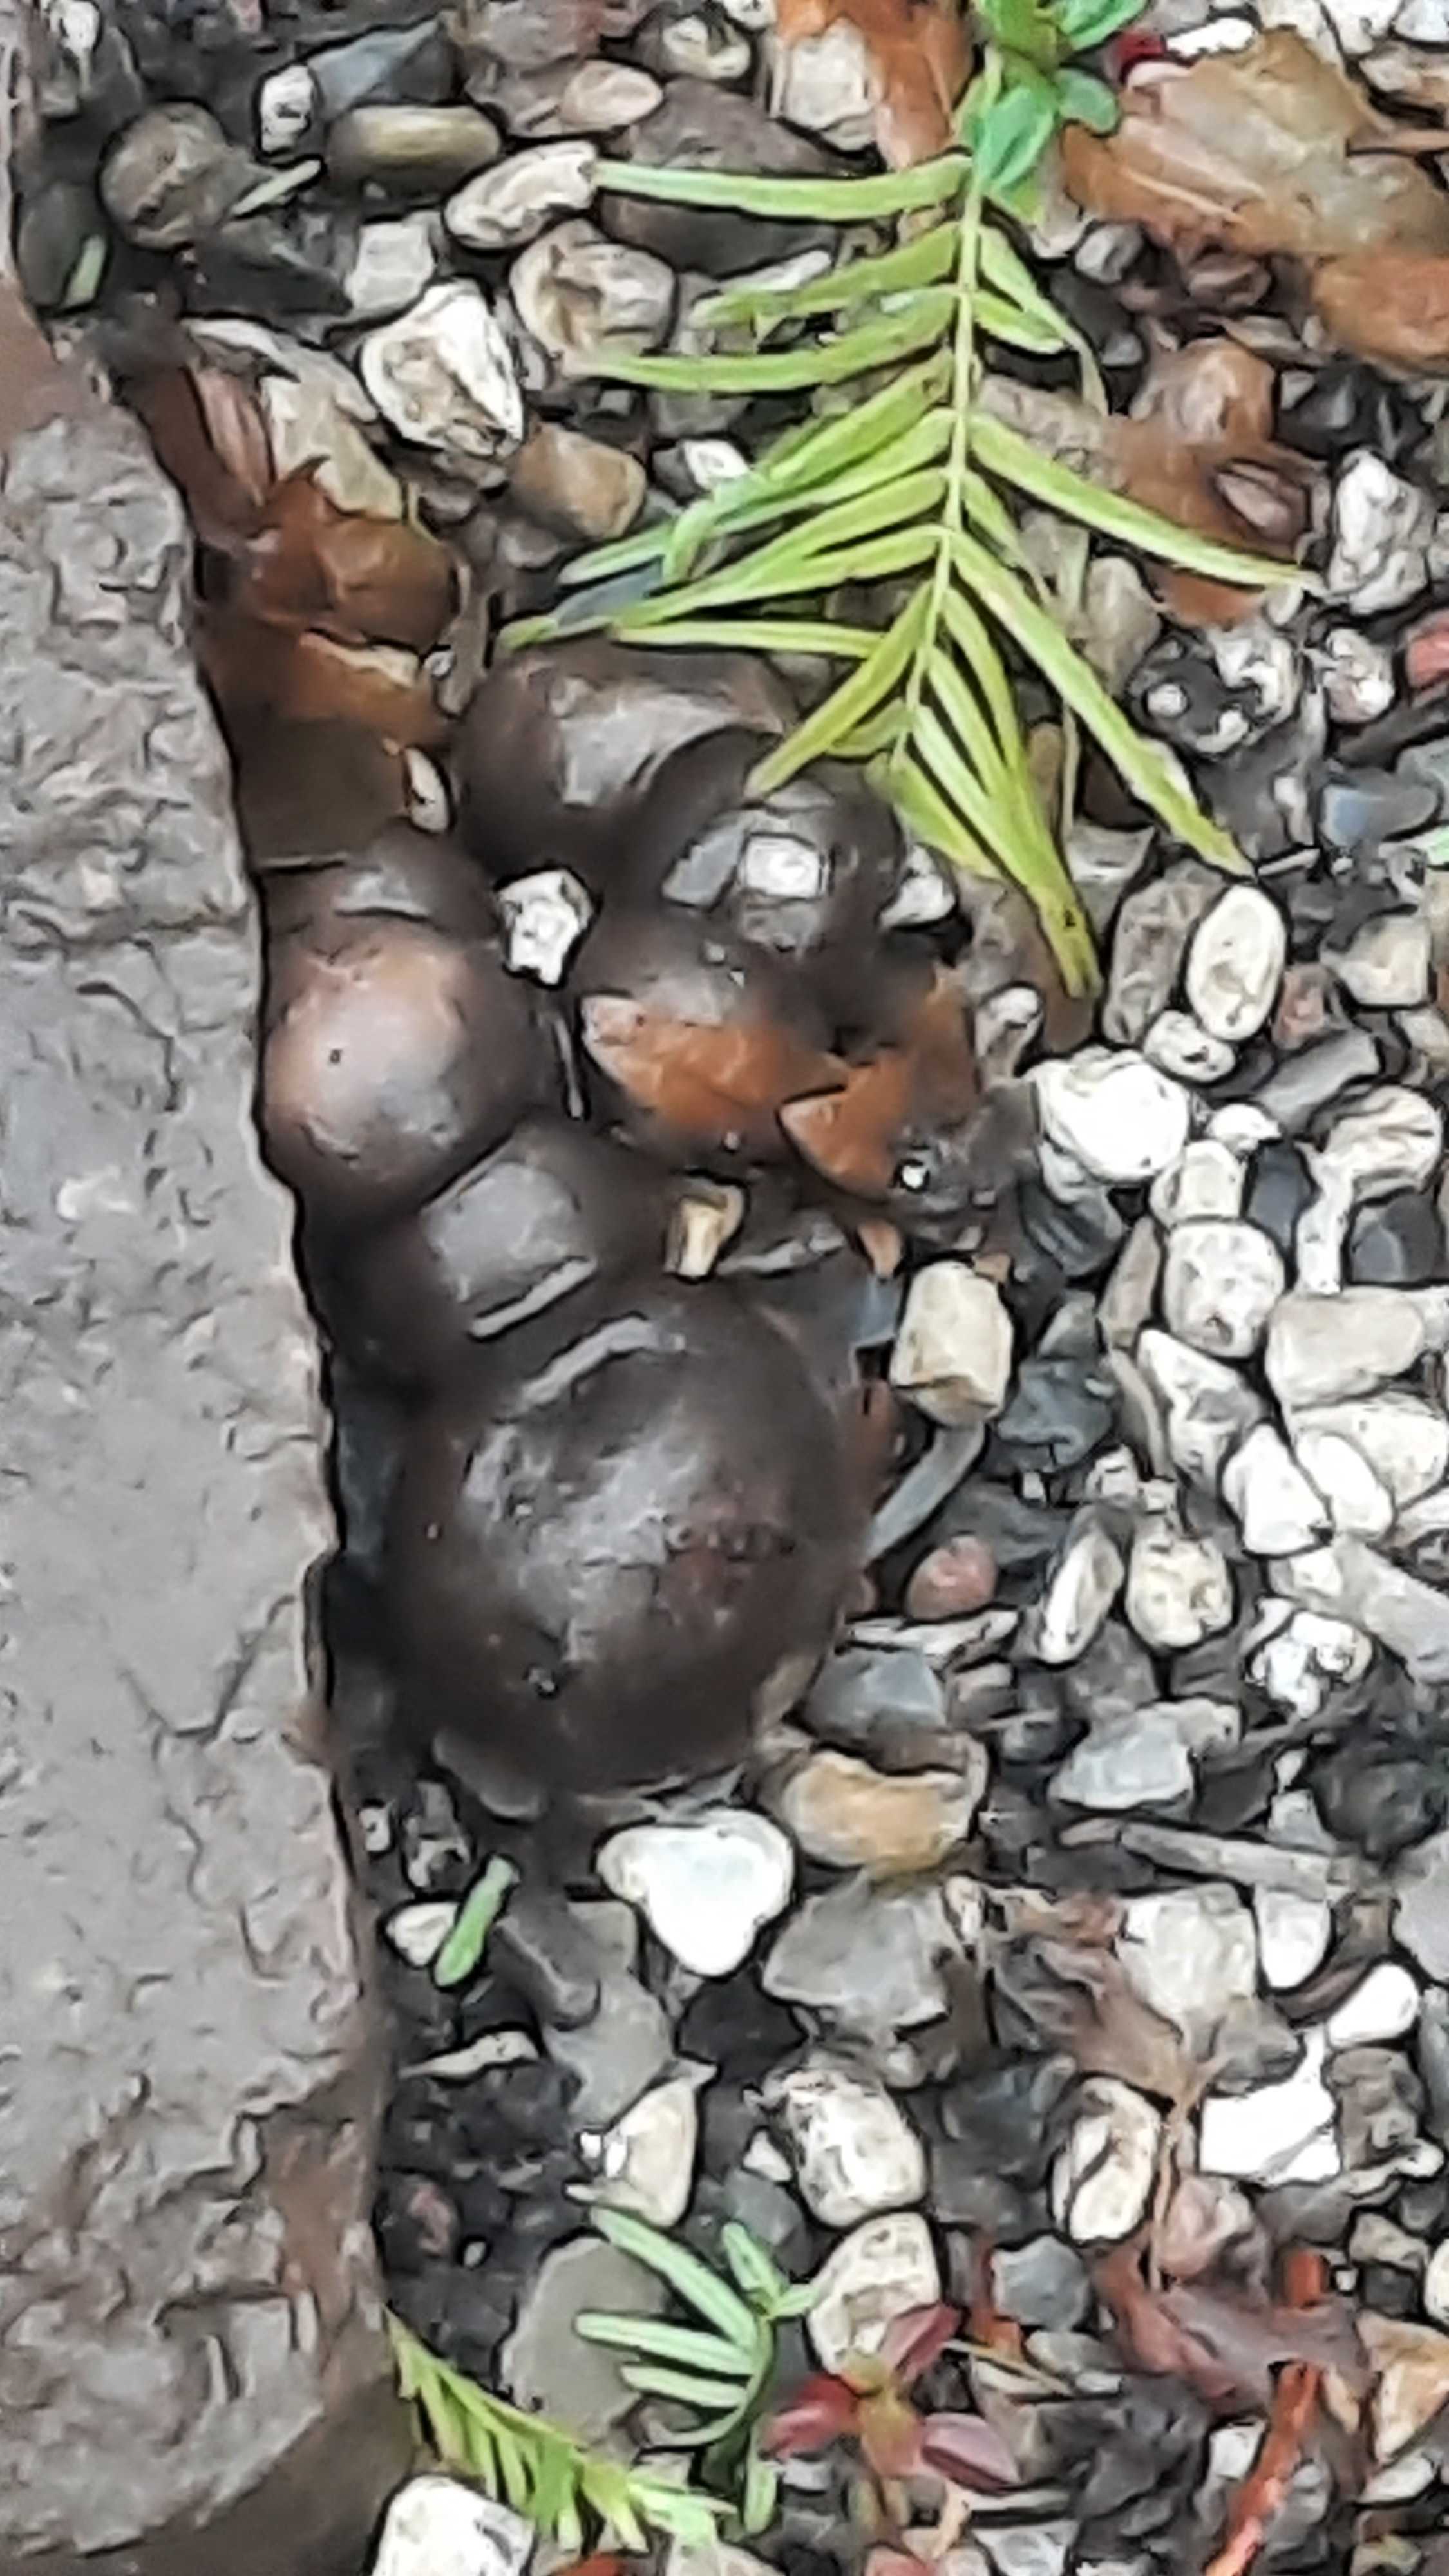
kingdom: Fungi
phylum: Basidiomycota
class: Agaricomycetes
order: Agaricales
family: Lyophyllaceae
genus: Lyophyllum
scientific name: Lyophyllum decastes
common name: røggrå gråblad
